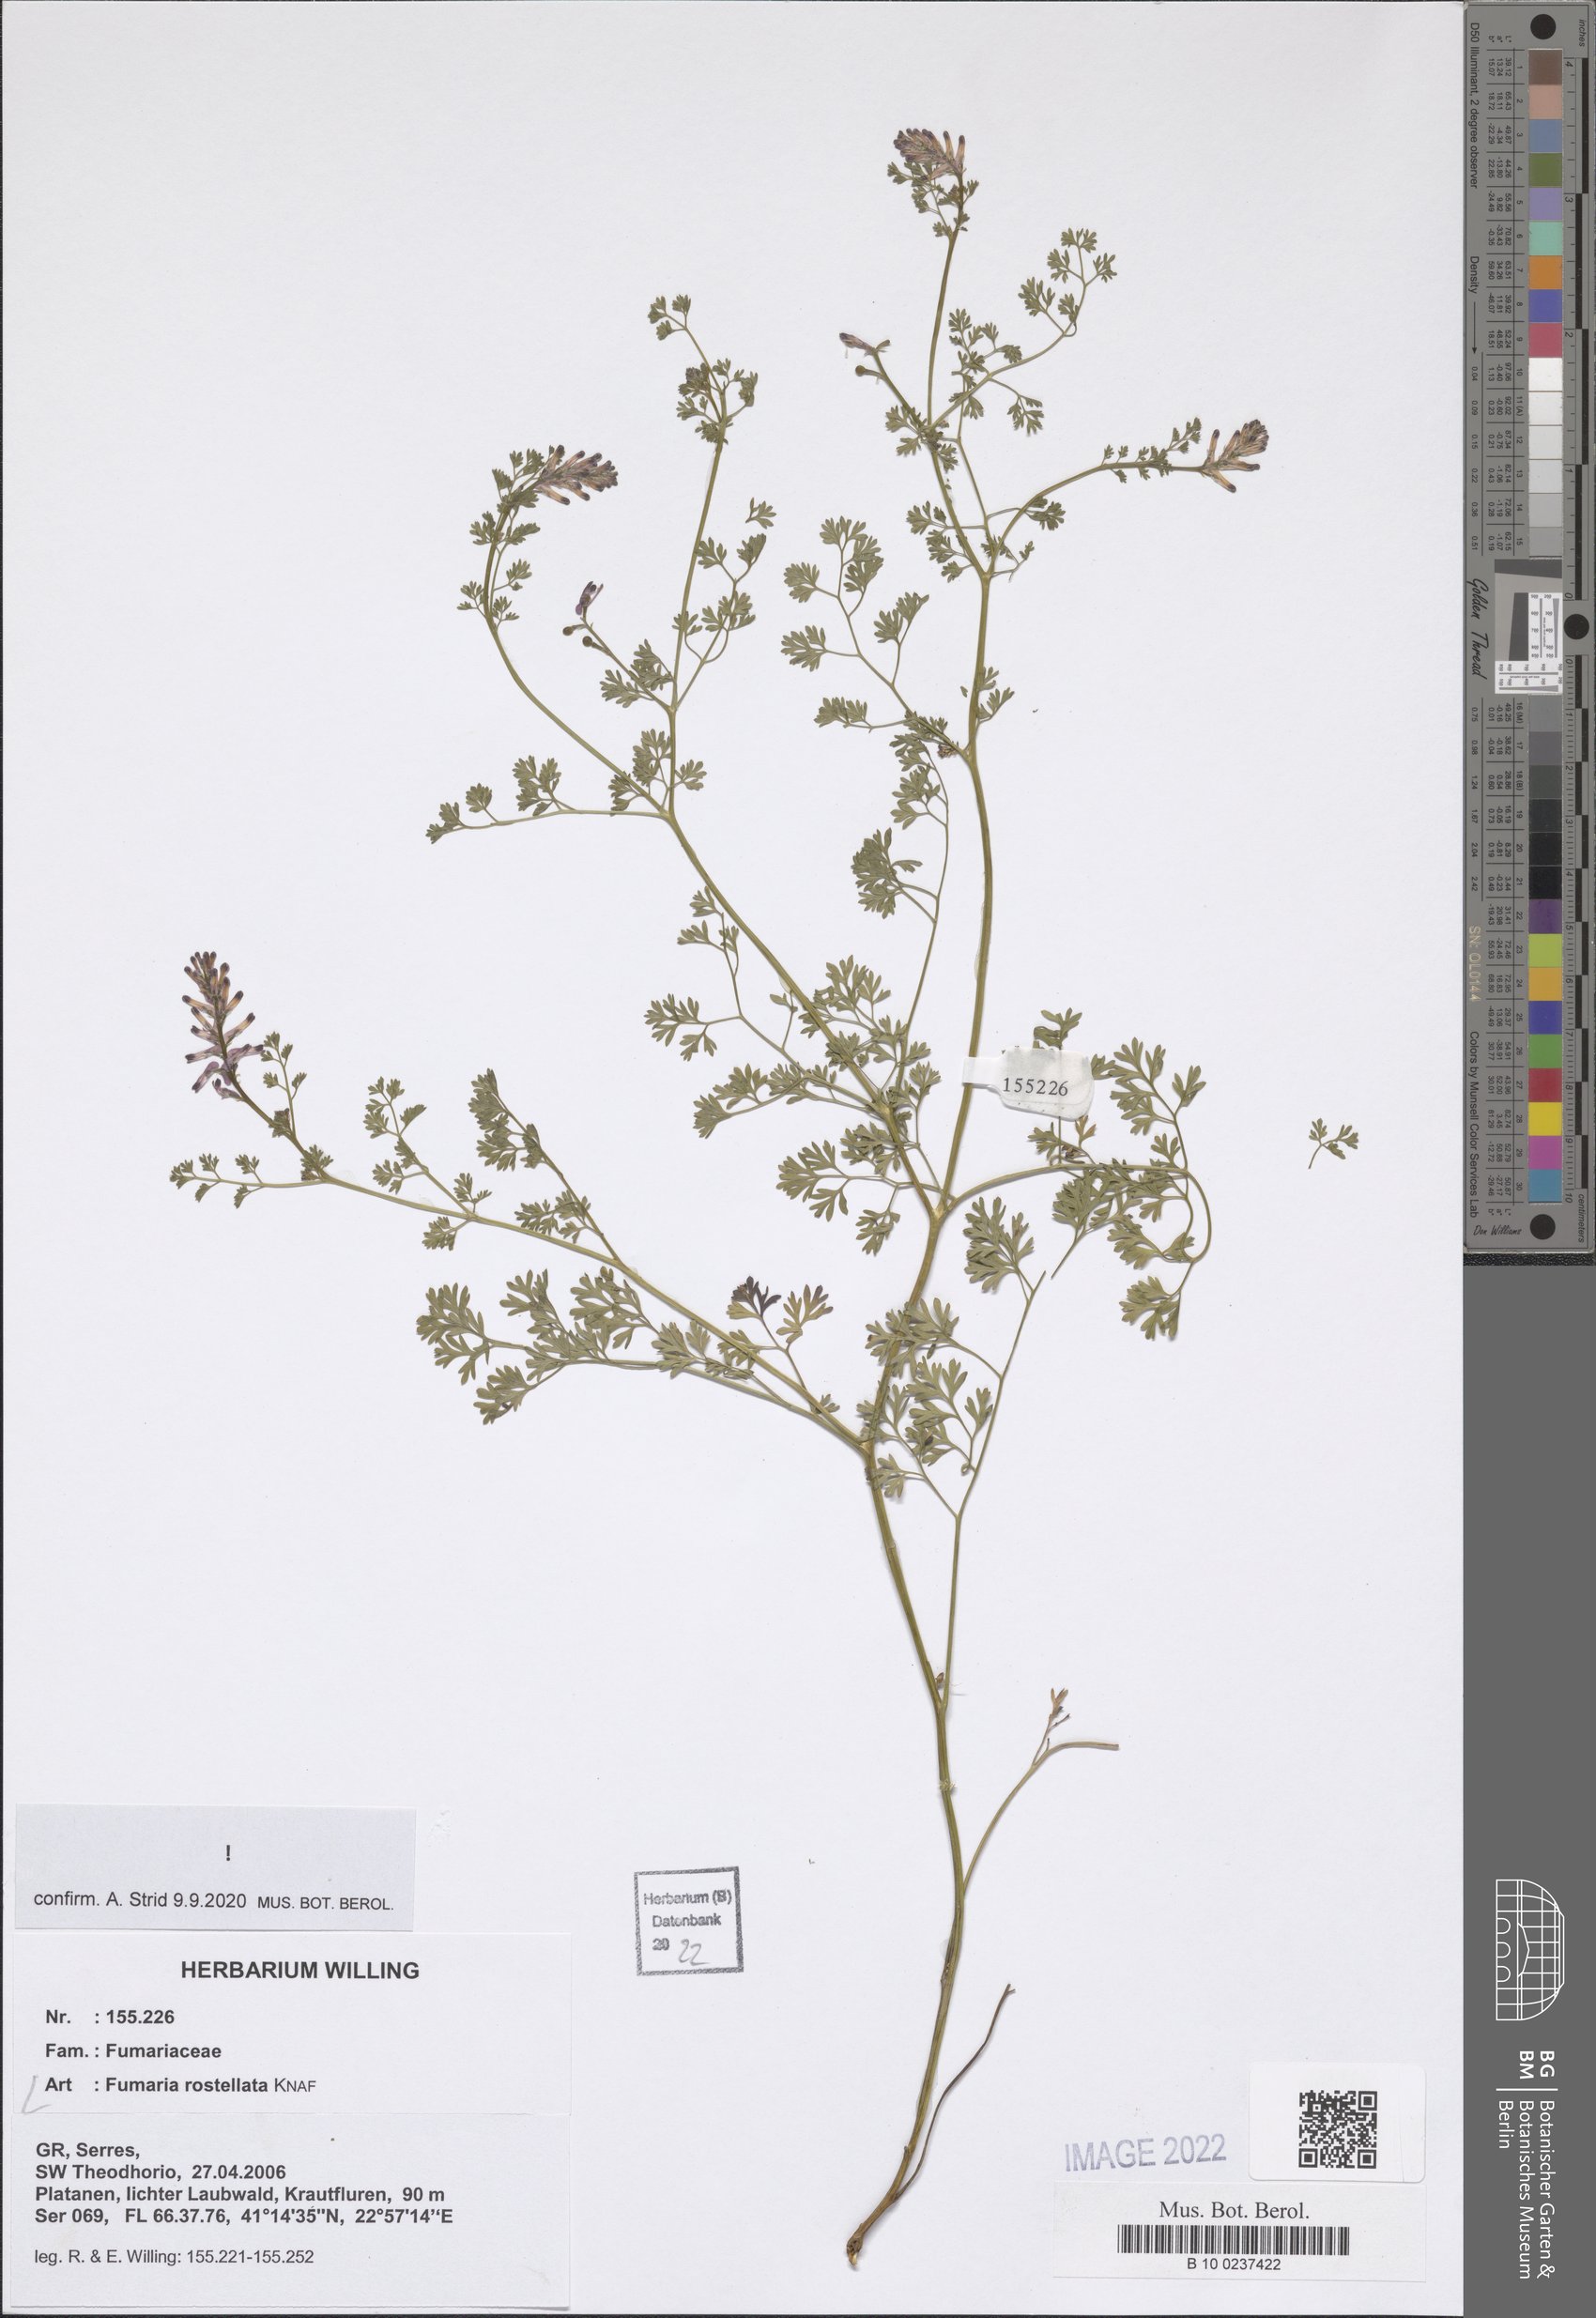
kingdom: Plantae
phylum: Tracheophyta
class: Magnoliopsida
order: Ranunculales
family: Papaveraceae
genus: Fumaria
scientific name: Fumaria rostellata
